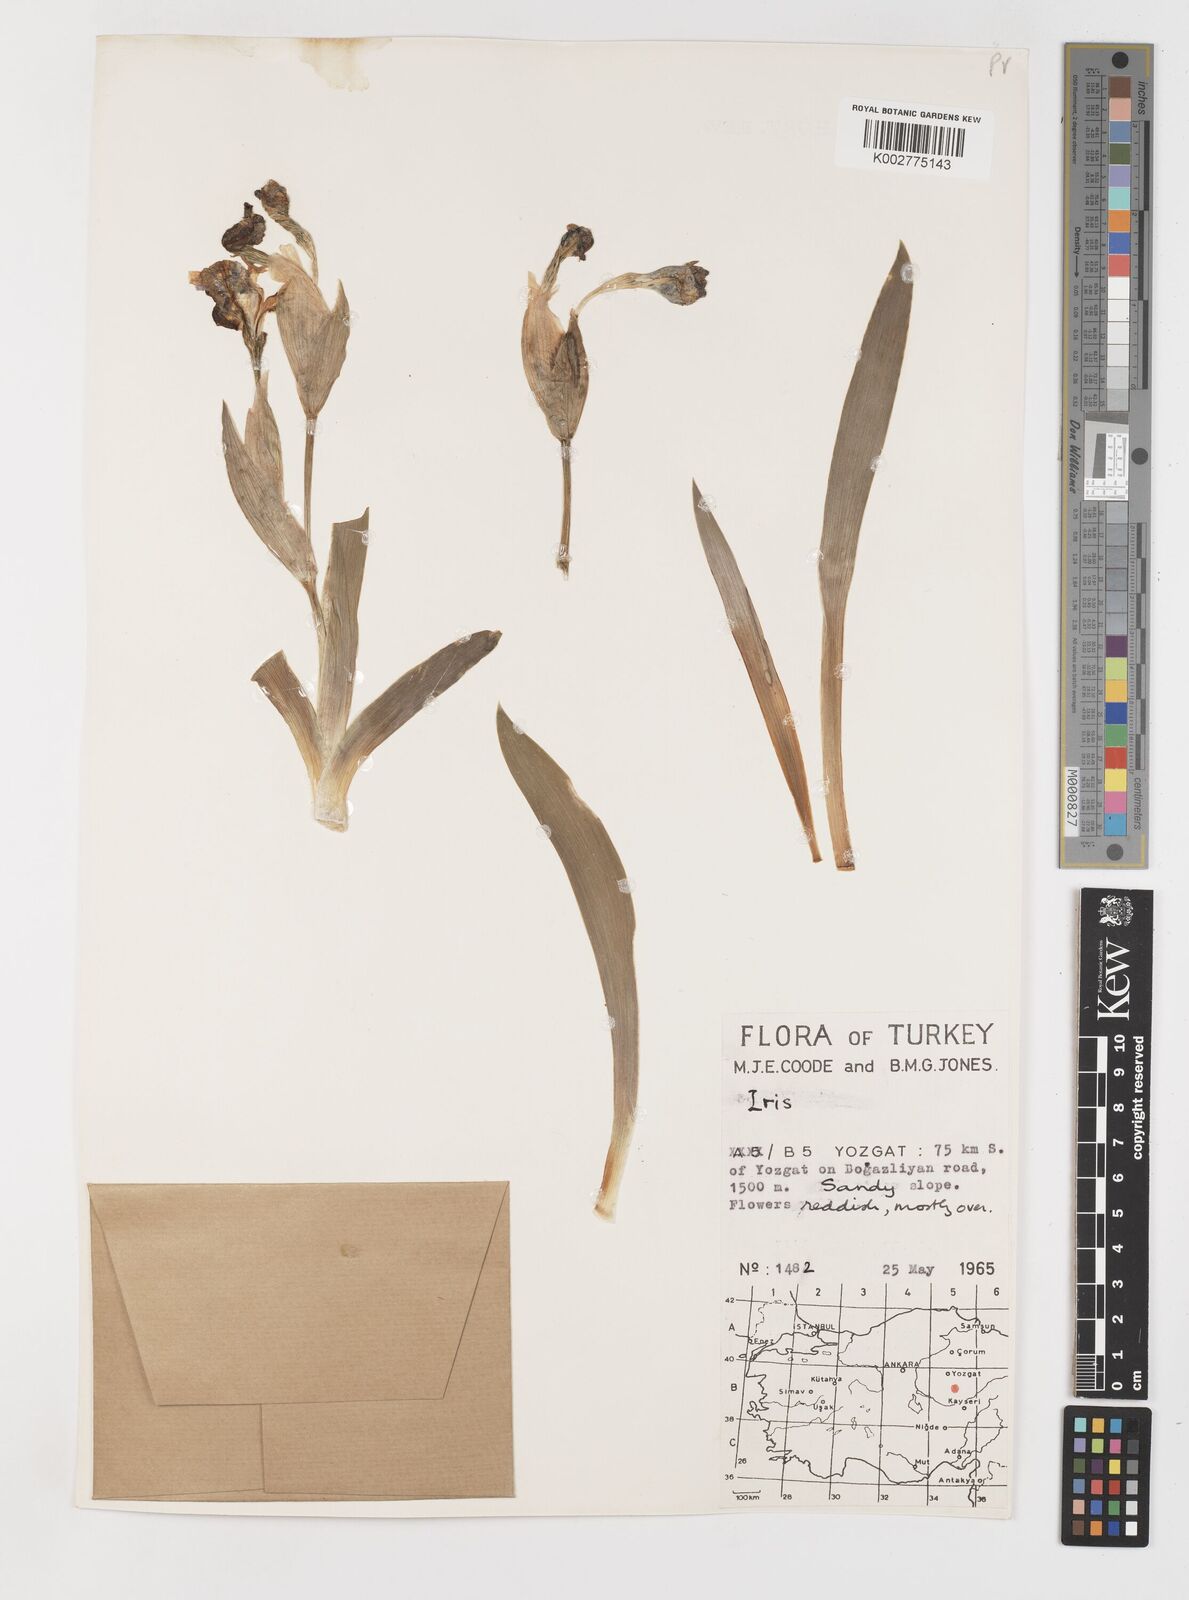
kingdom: Plantae
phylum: Tracheophyta
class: Liliopsida
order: Asparagales
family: Iridaceae
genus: Iris
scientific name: Iris schachtii
